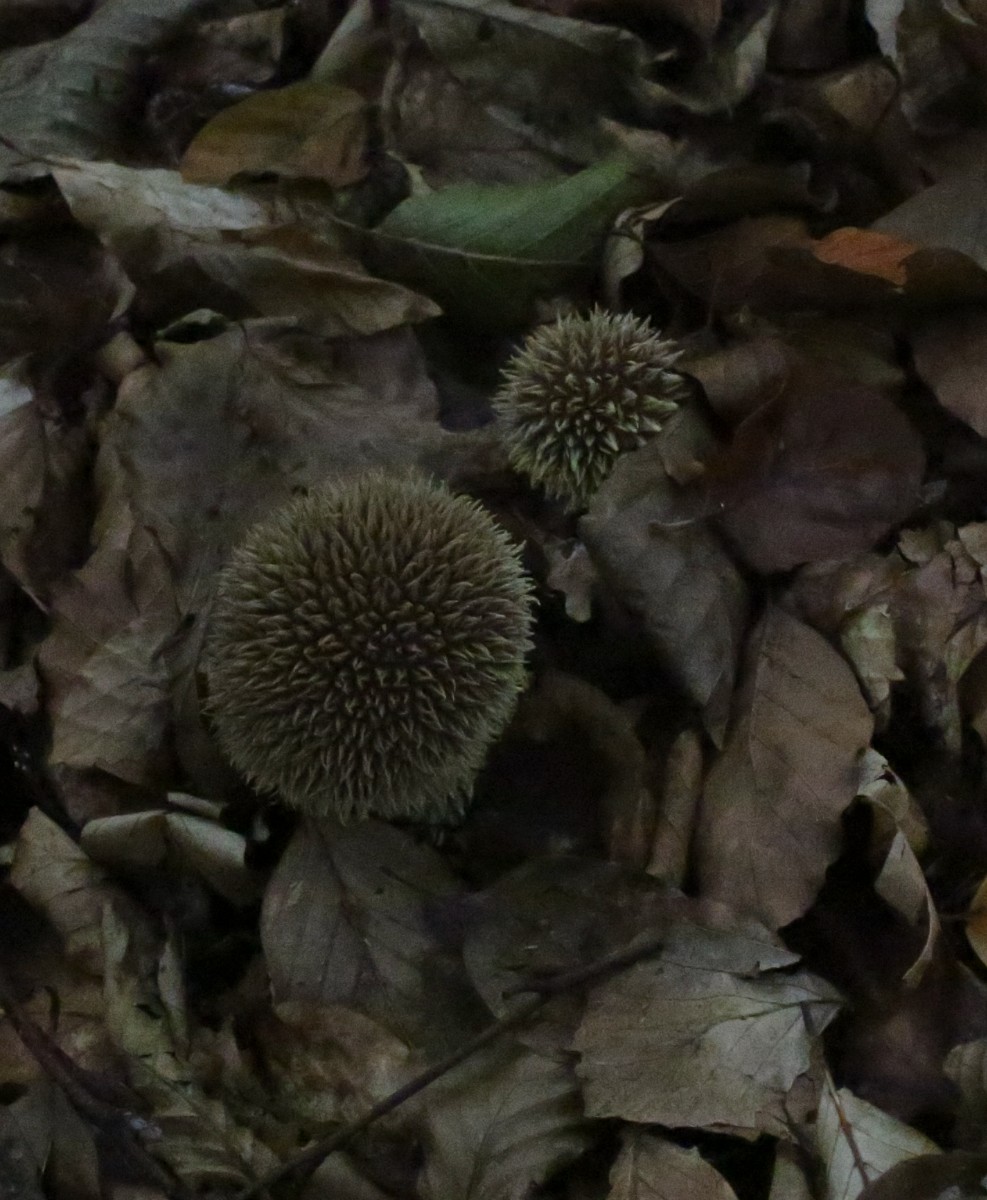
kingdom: Fungi
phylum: Basidiomycota
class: Agaricomycetes
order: Agaricales
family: Lycoperdaceae
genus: Lycoperdon
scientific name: Lycoperdon echinatum
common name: pindsvine-støvbold
